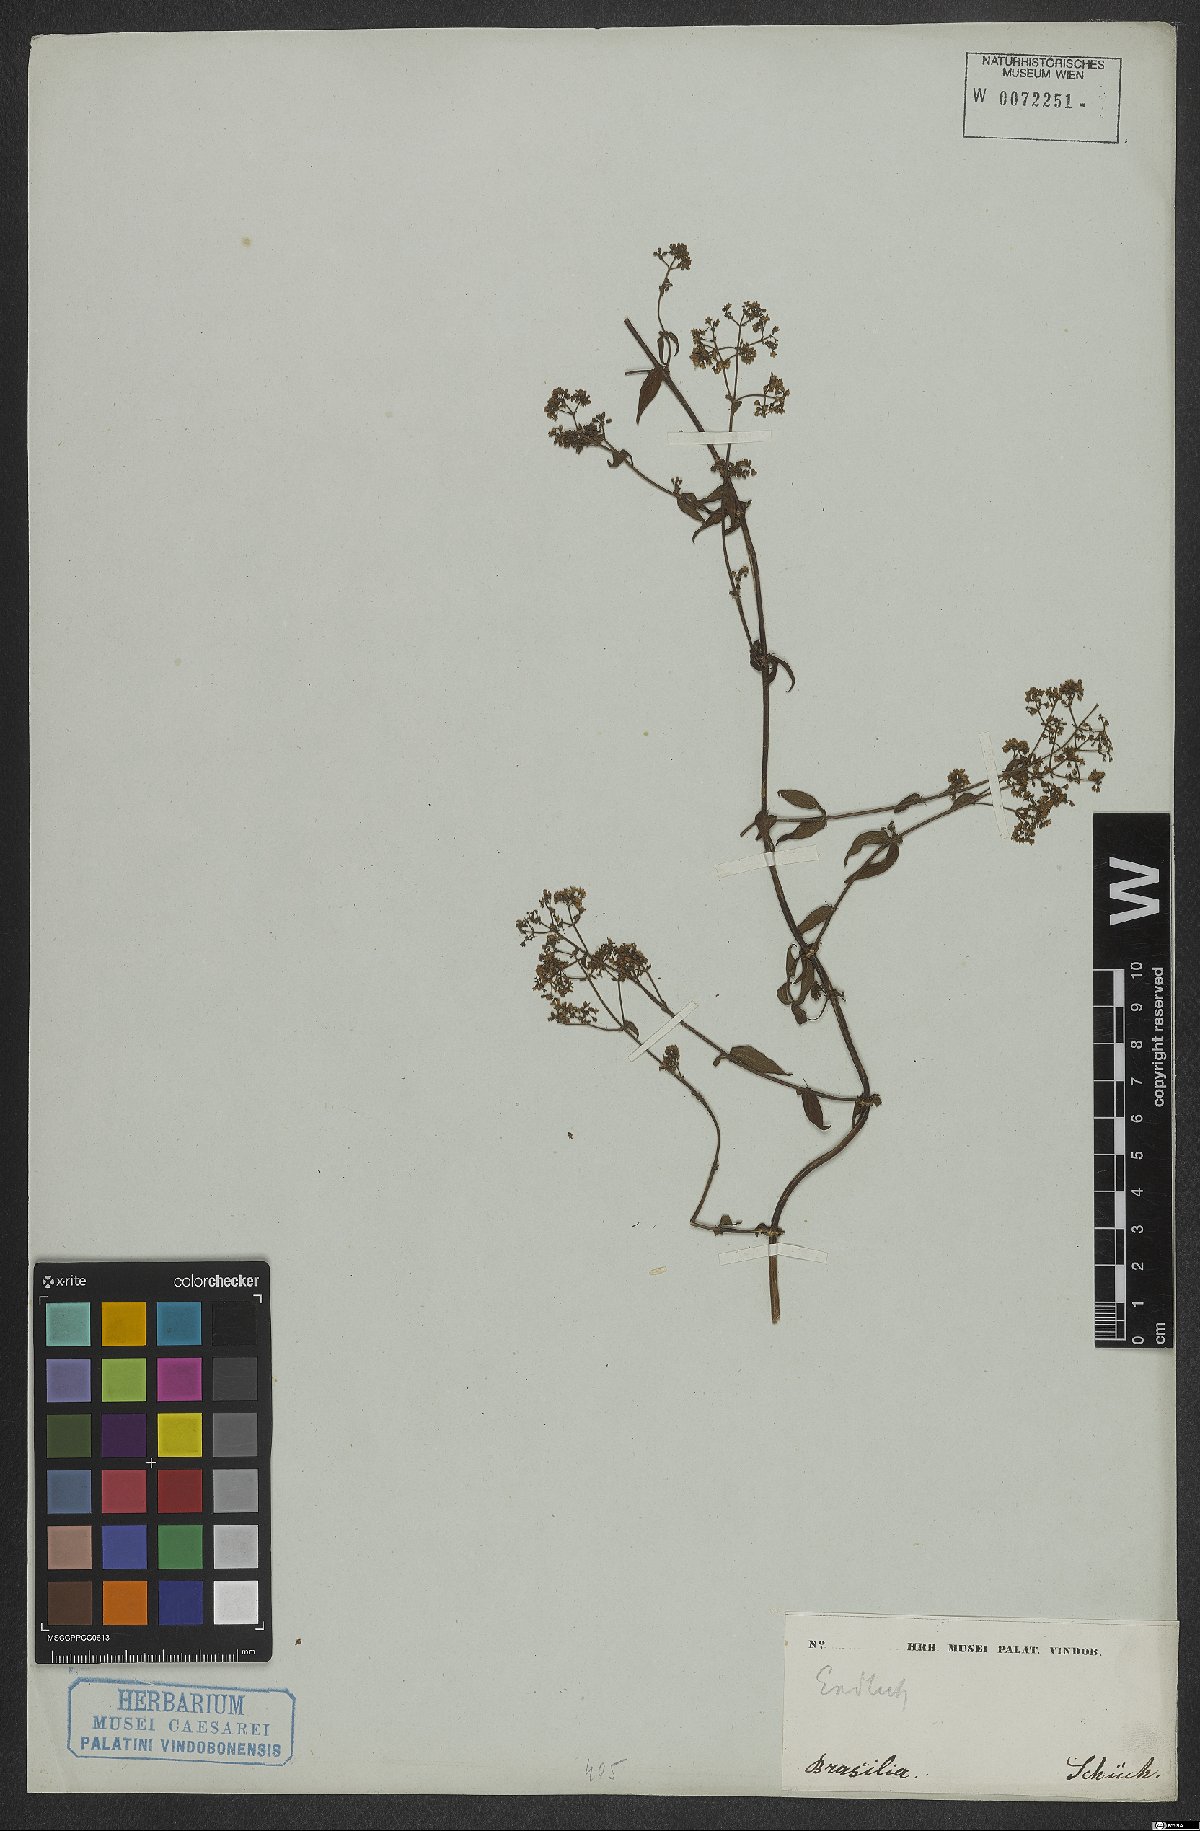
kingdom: Plantae
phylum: Tracheophyta
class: Magnoliopsida
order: Gentianales
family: Rubiaceae
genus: Emmeorhiza
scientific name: Emmeorhiza
